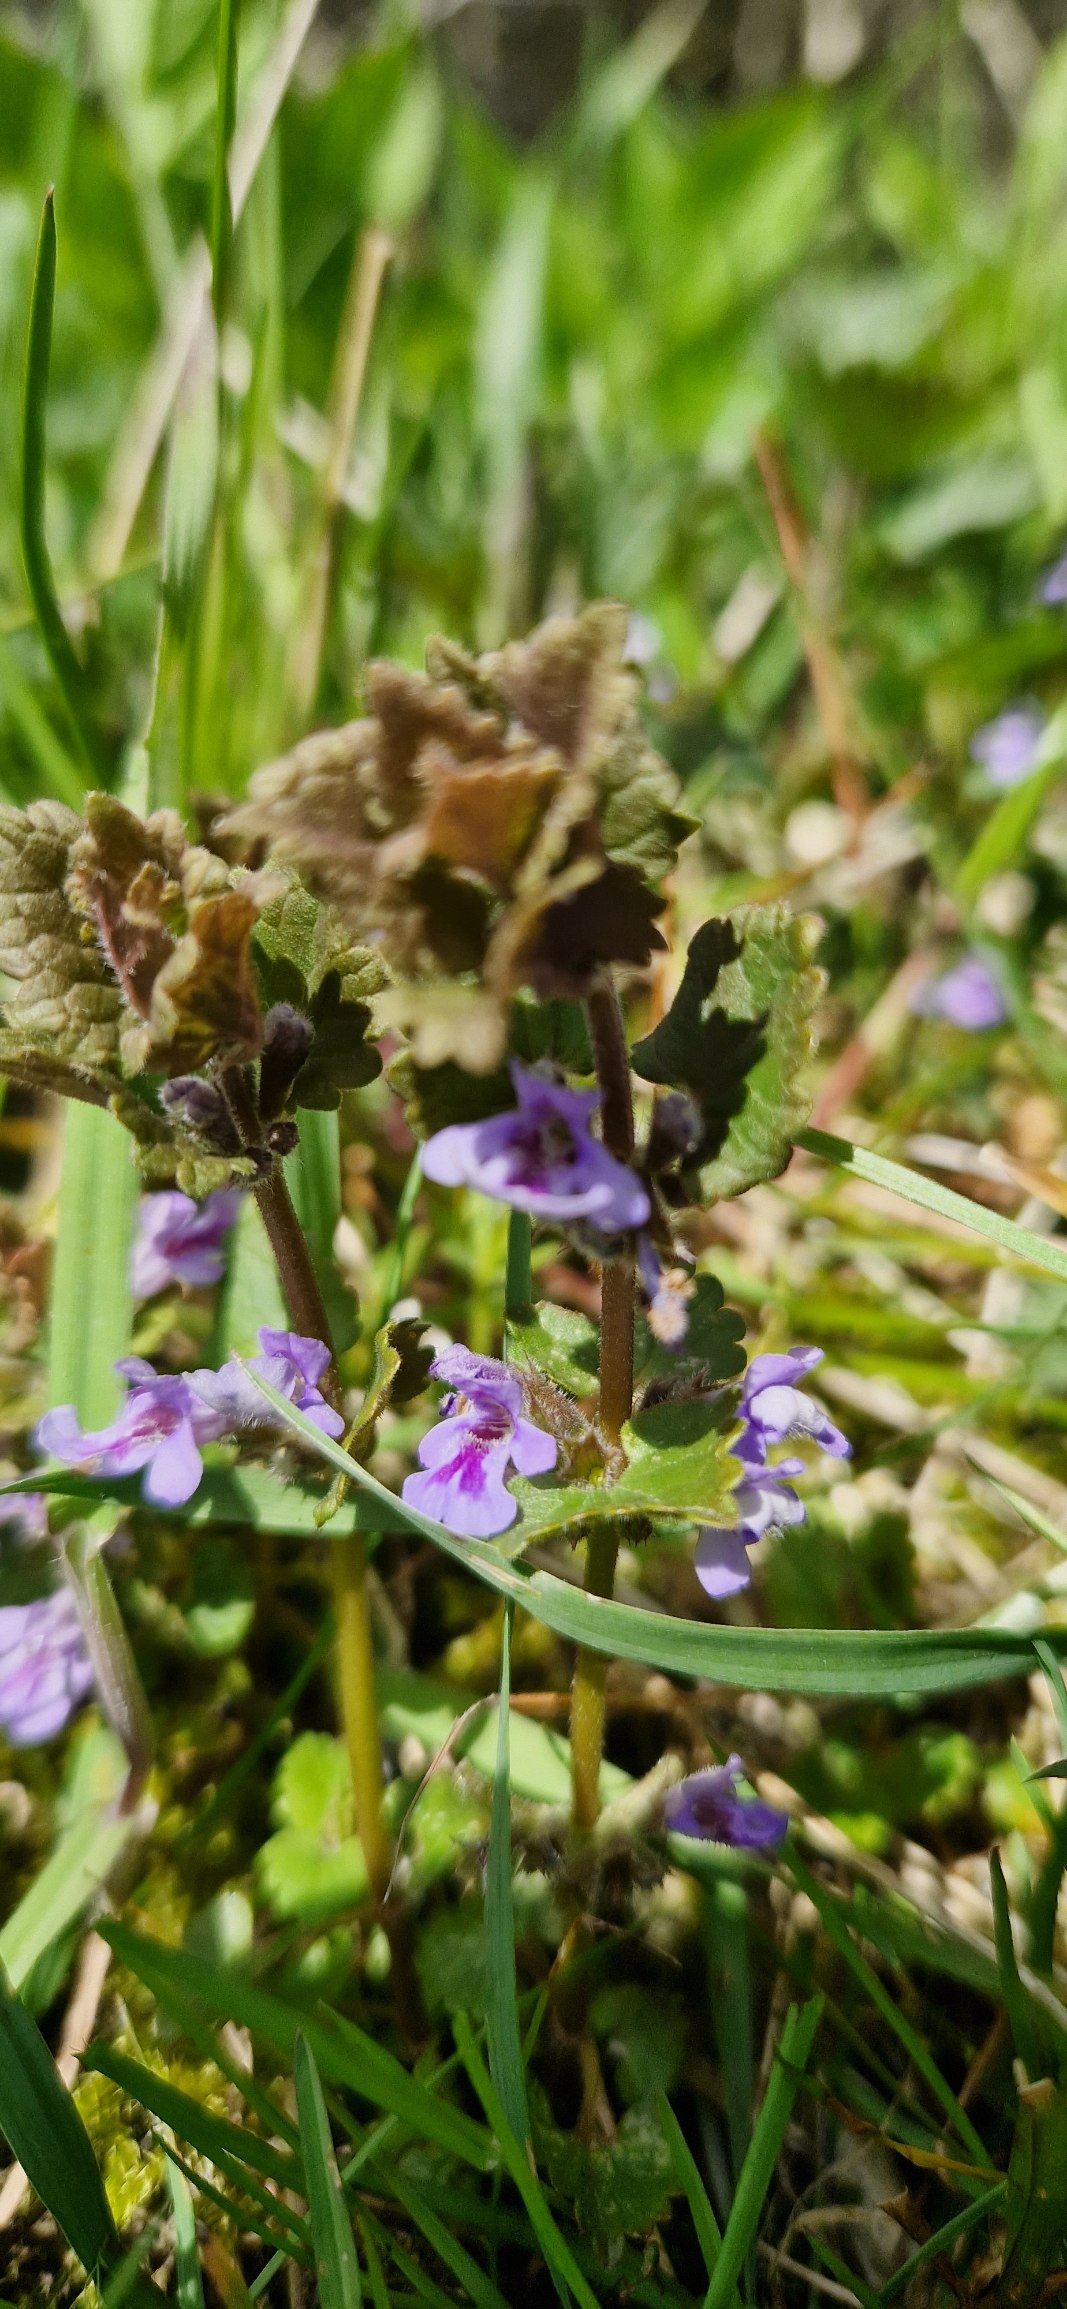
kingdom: Plantae
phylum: Tracheophyta
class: Magnoliopsida
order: Lamiales
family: Lamiaceae
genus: Glechoma
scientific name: Glechoma hederacea
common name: Korsknap
